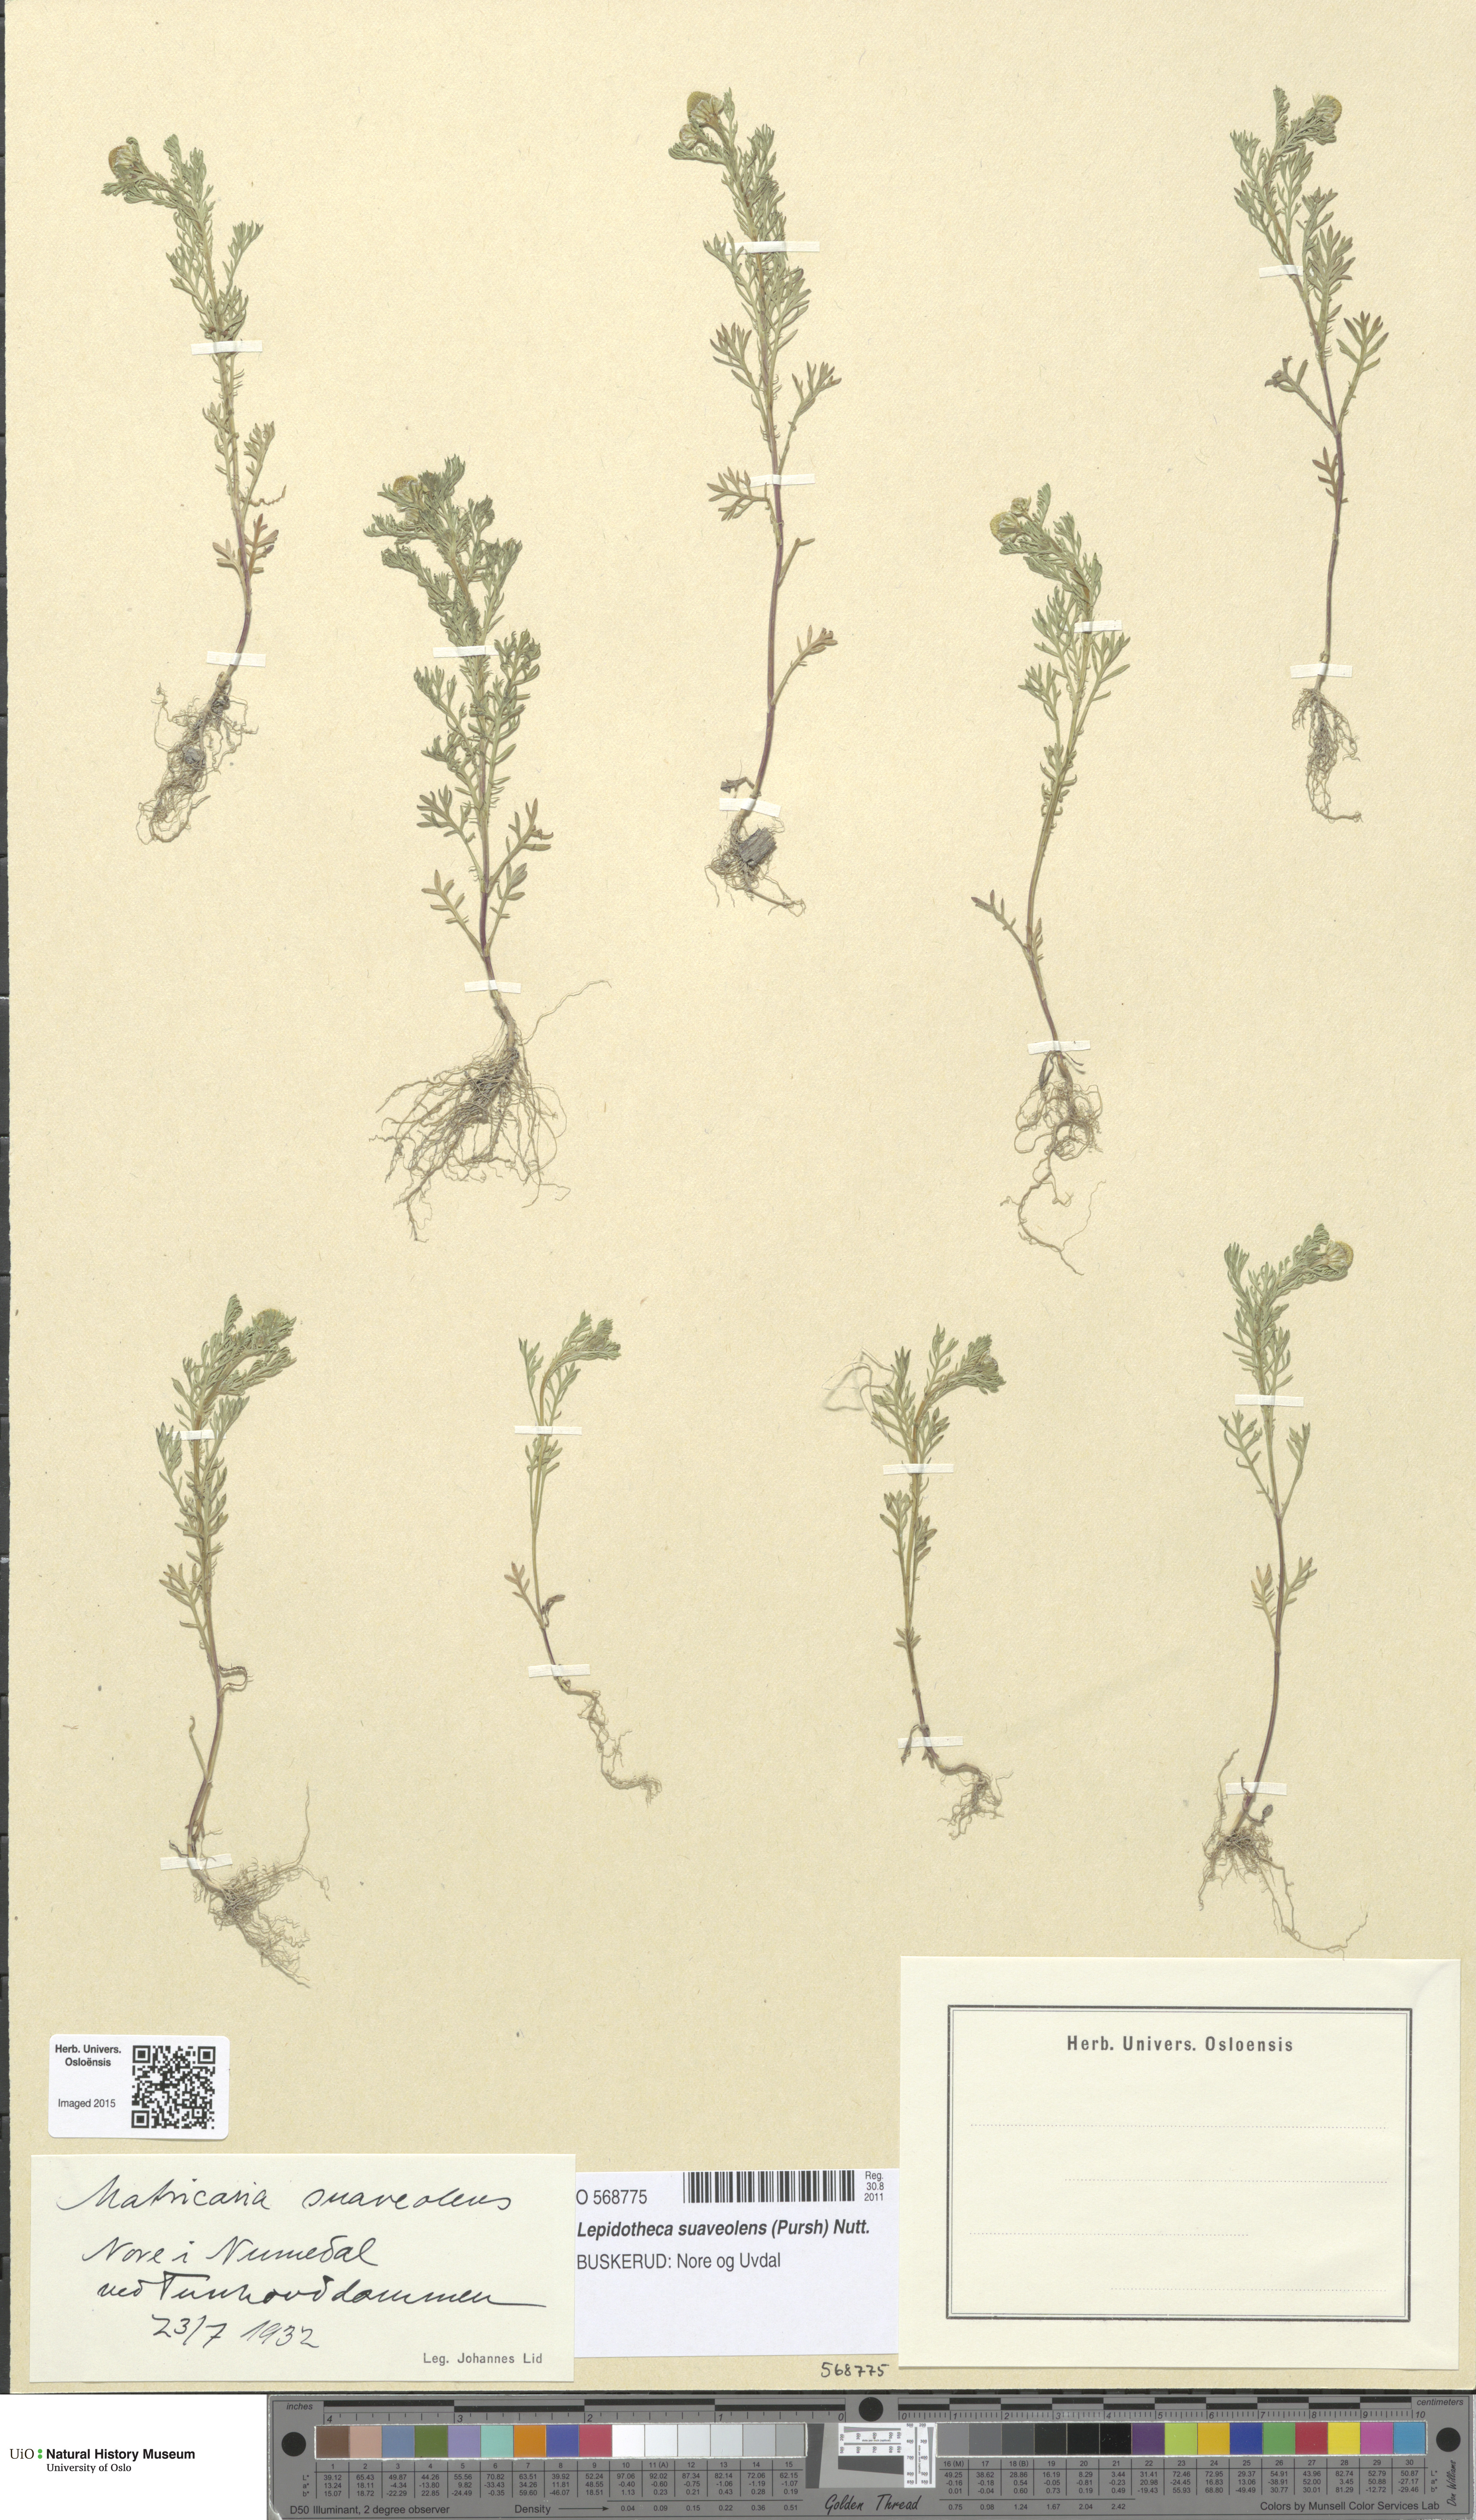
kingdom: Plantae
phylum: Tracheophyta
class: Magnoliopsida
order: Asterales
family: Asteraceae
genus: Matricaria
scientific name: Matricaria discoidea
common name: Disc mayweed
